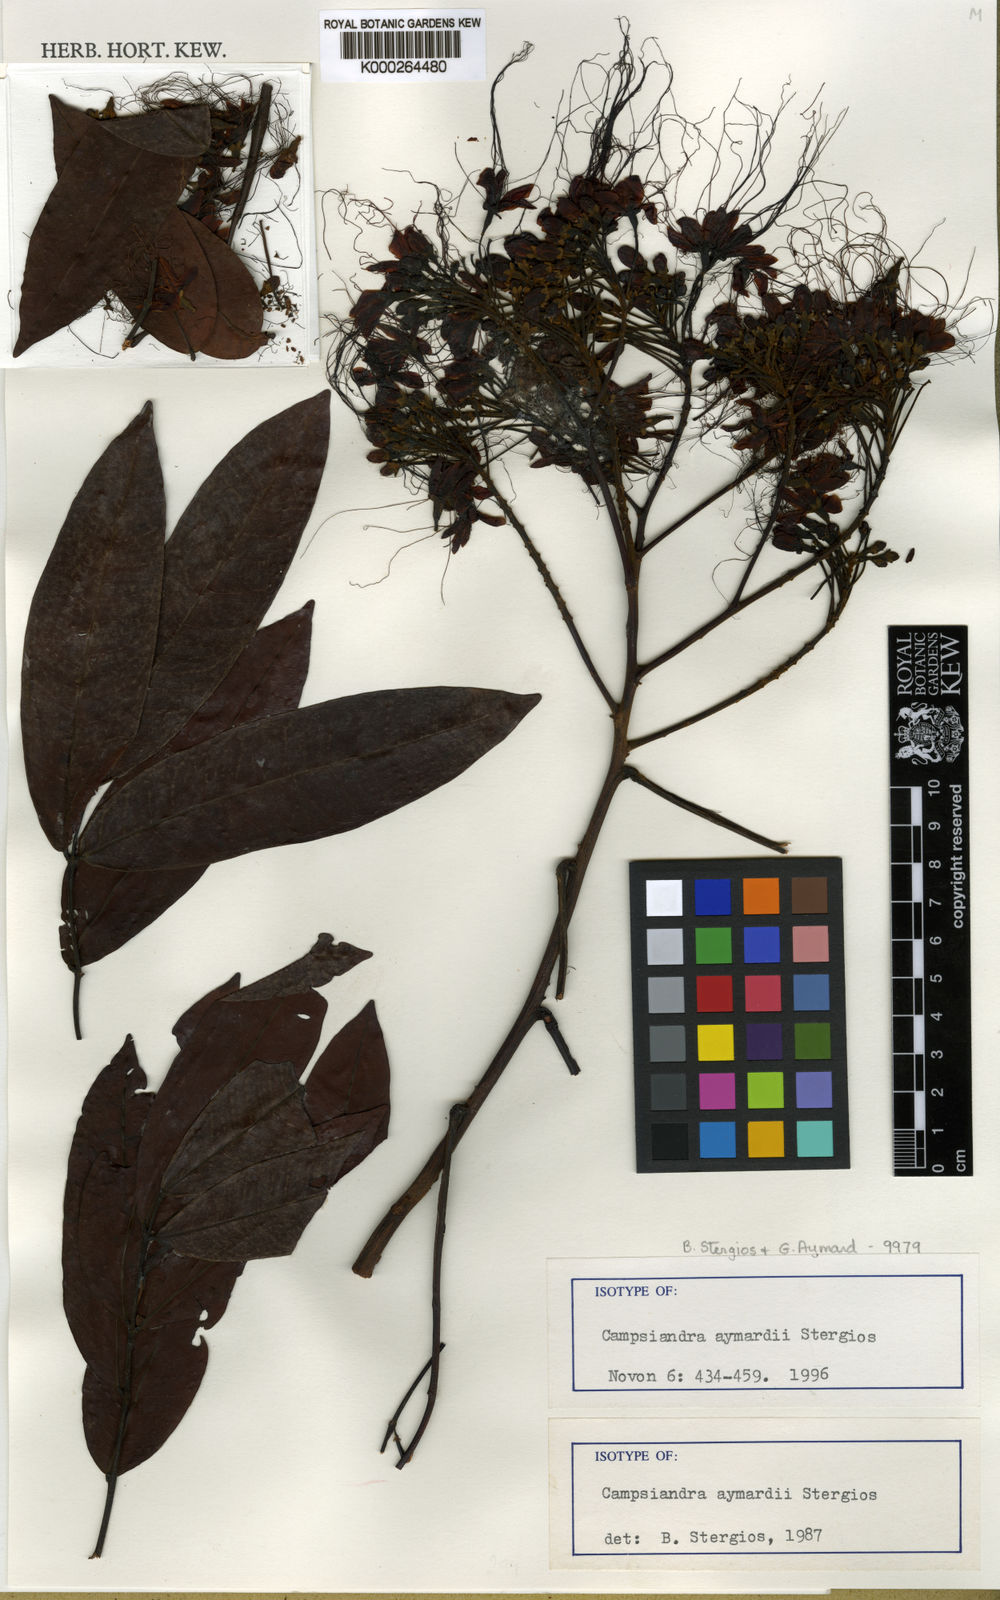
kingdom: Plantae
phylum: Tracheophyta
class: Magnoliopsida
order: Fabales
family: Fabaceae
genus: Campsiandra
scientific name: Campsiandra aymardii
